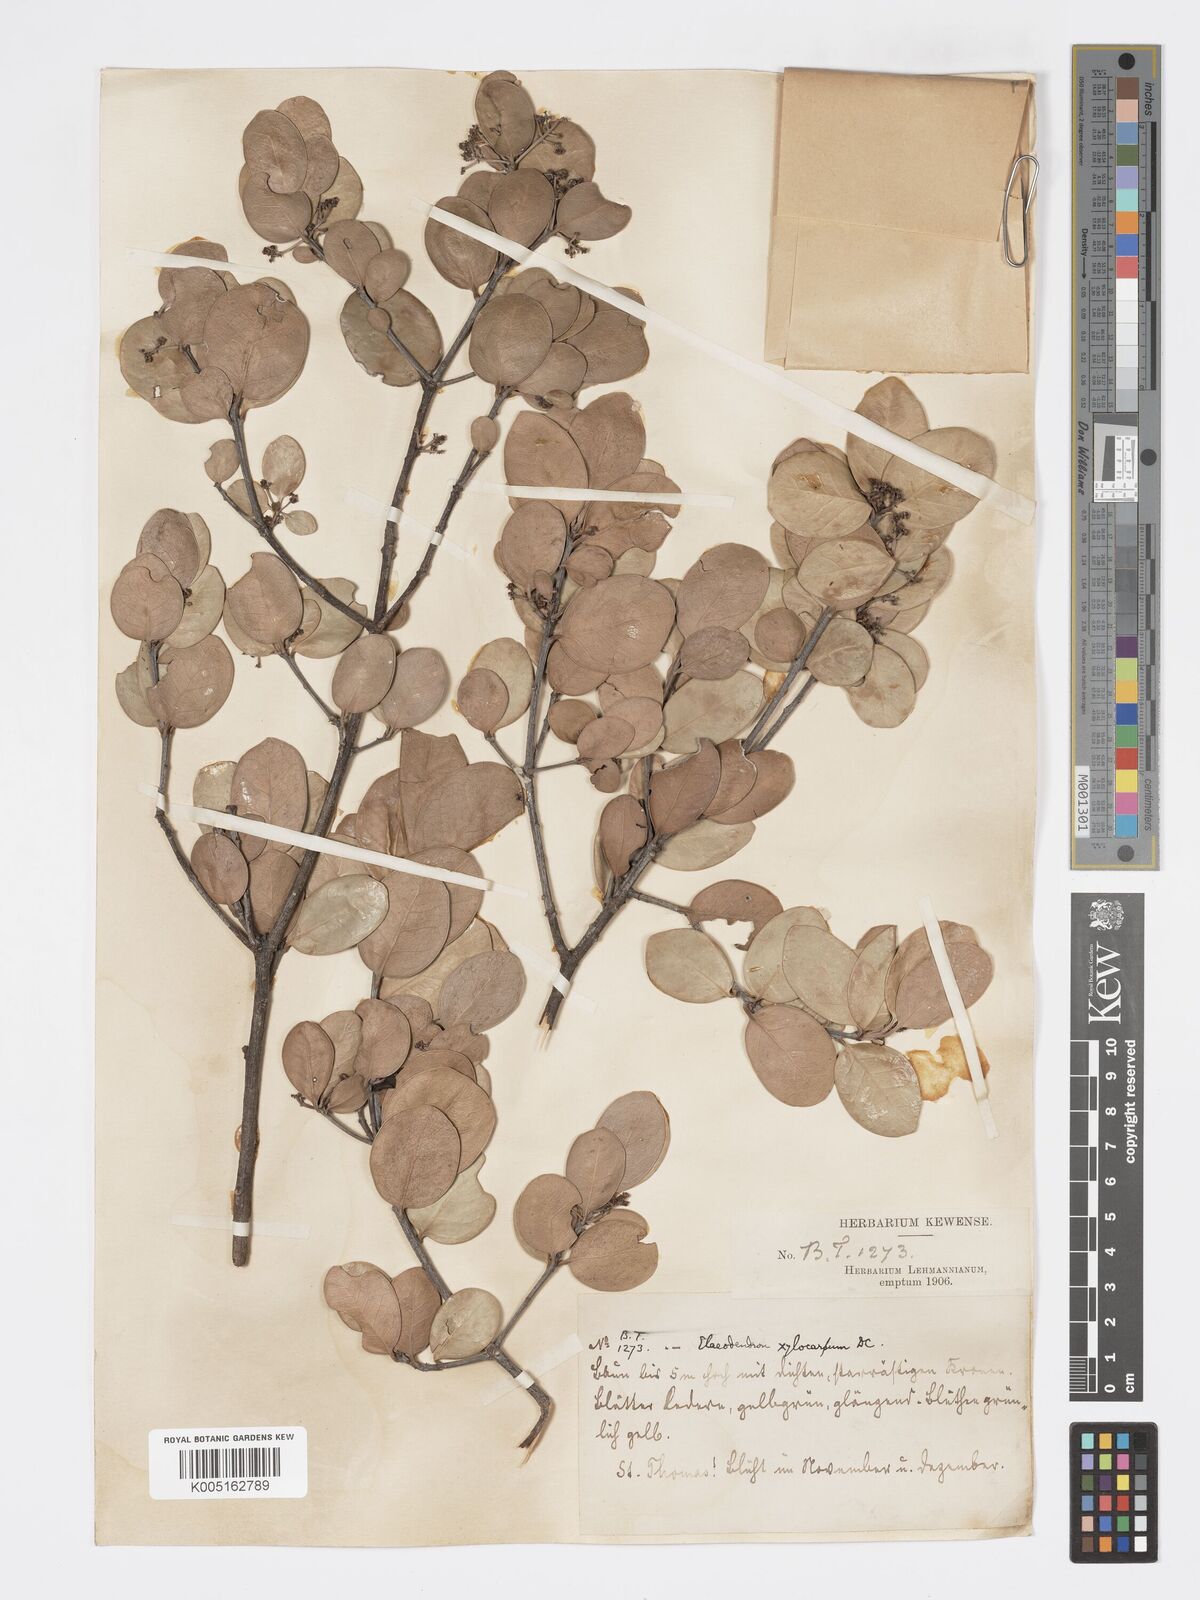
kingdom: Plantae
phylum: Tracheophyta
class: Magnoliopsida
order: Celastrales
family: Celastraceae
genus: Elaeodendron
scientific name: Elaeodendron
